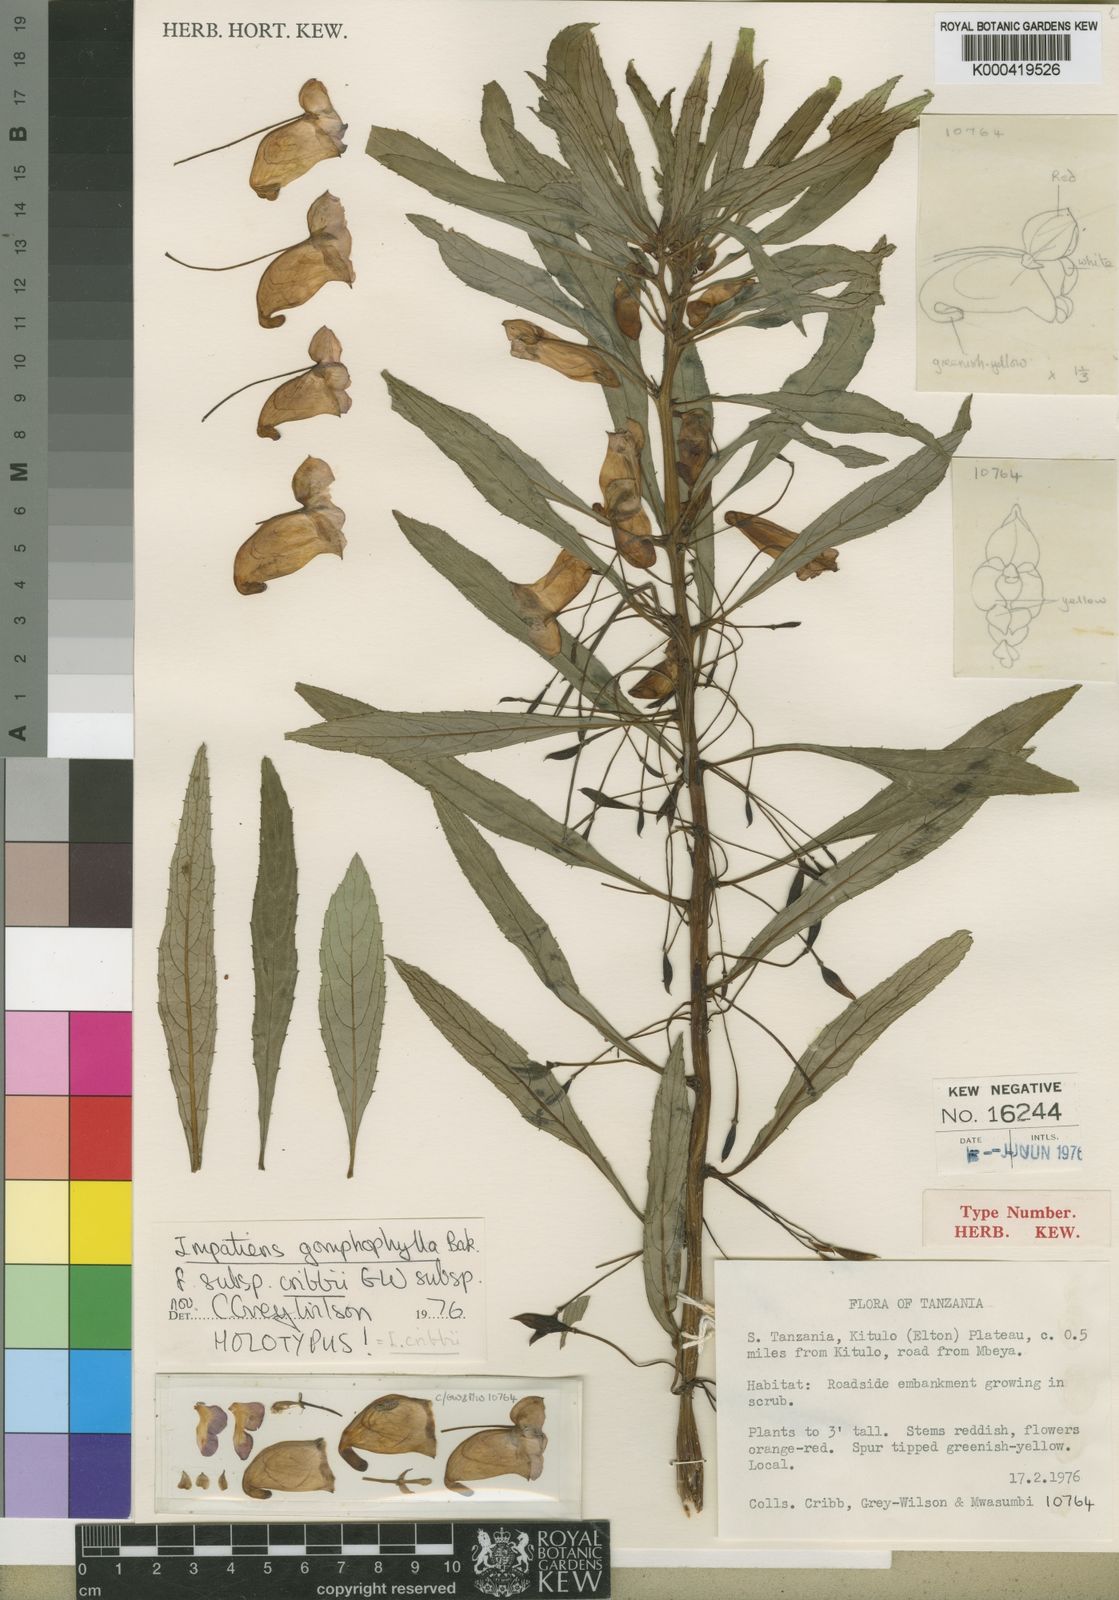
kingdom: Plantae
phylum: Tracheophyta
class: Magnoliopsida
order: Ericales
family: Balsaminaceae
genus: Impatiens
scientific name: Impatiens cribbii
